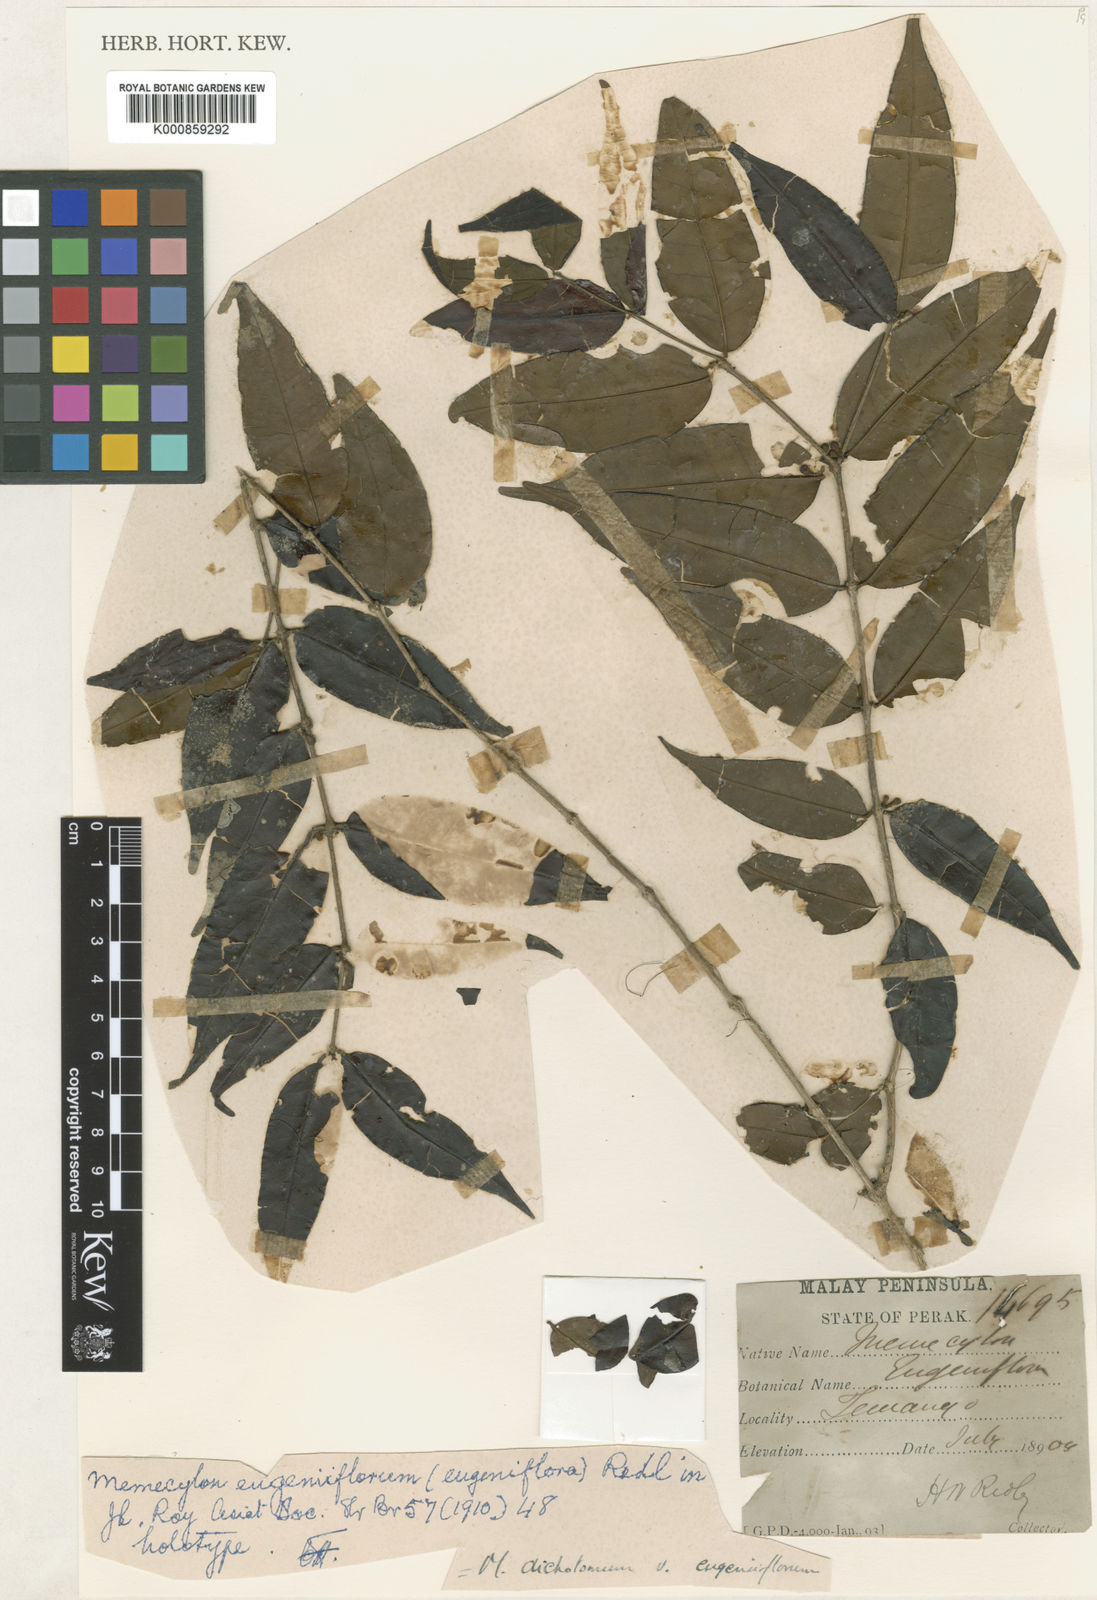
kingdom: Plantae
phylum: Tracheophyta
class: Magnoliopsida
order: Myrtales
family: Melastomataceae
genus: Memecylon
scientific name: Memecylon dichotomum
